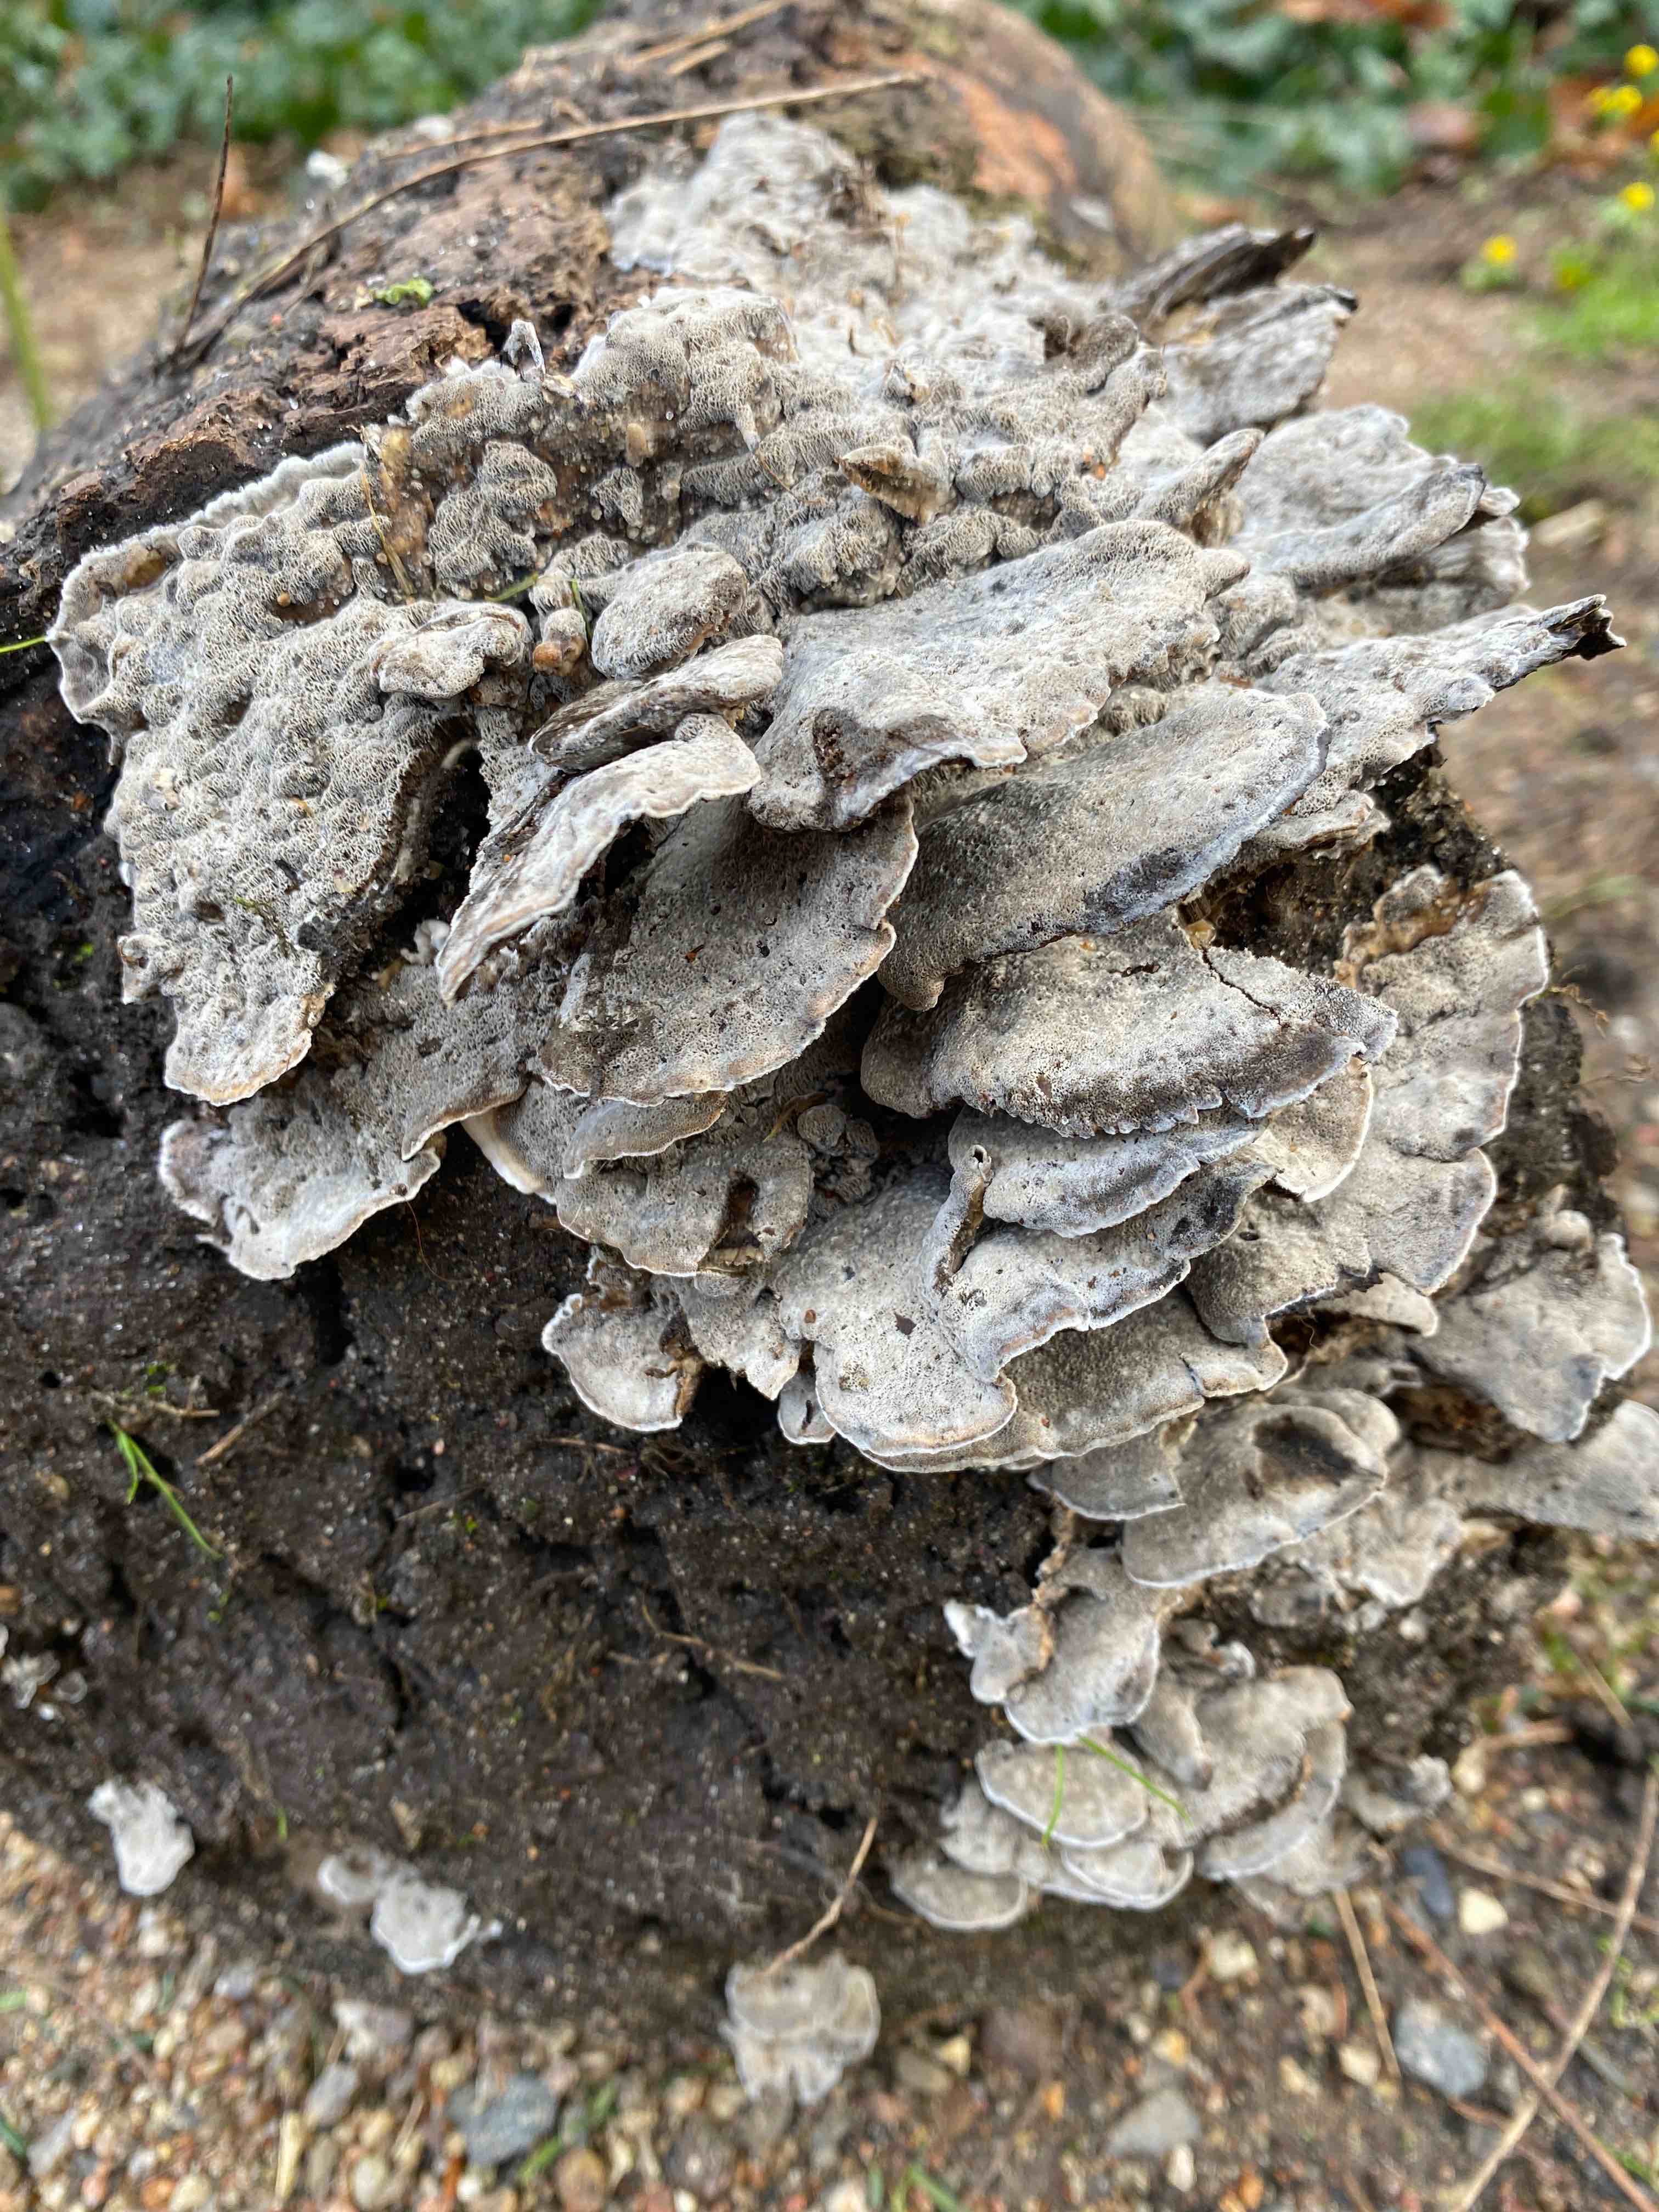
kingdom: Fungi
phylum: Basidiomycota
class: Agaricomycetes
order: Polyporales
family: Phanerochaetaceae
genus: Bjerkandera
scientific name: Bjerkandera adusta
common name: sveden sodporesvamp
